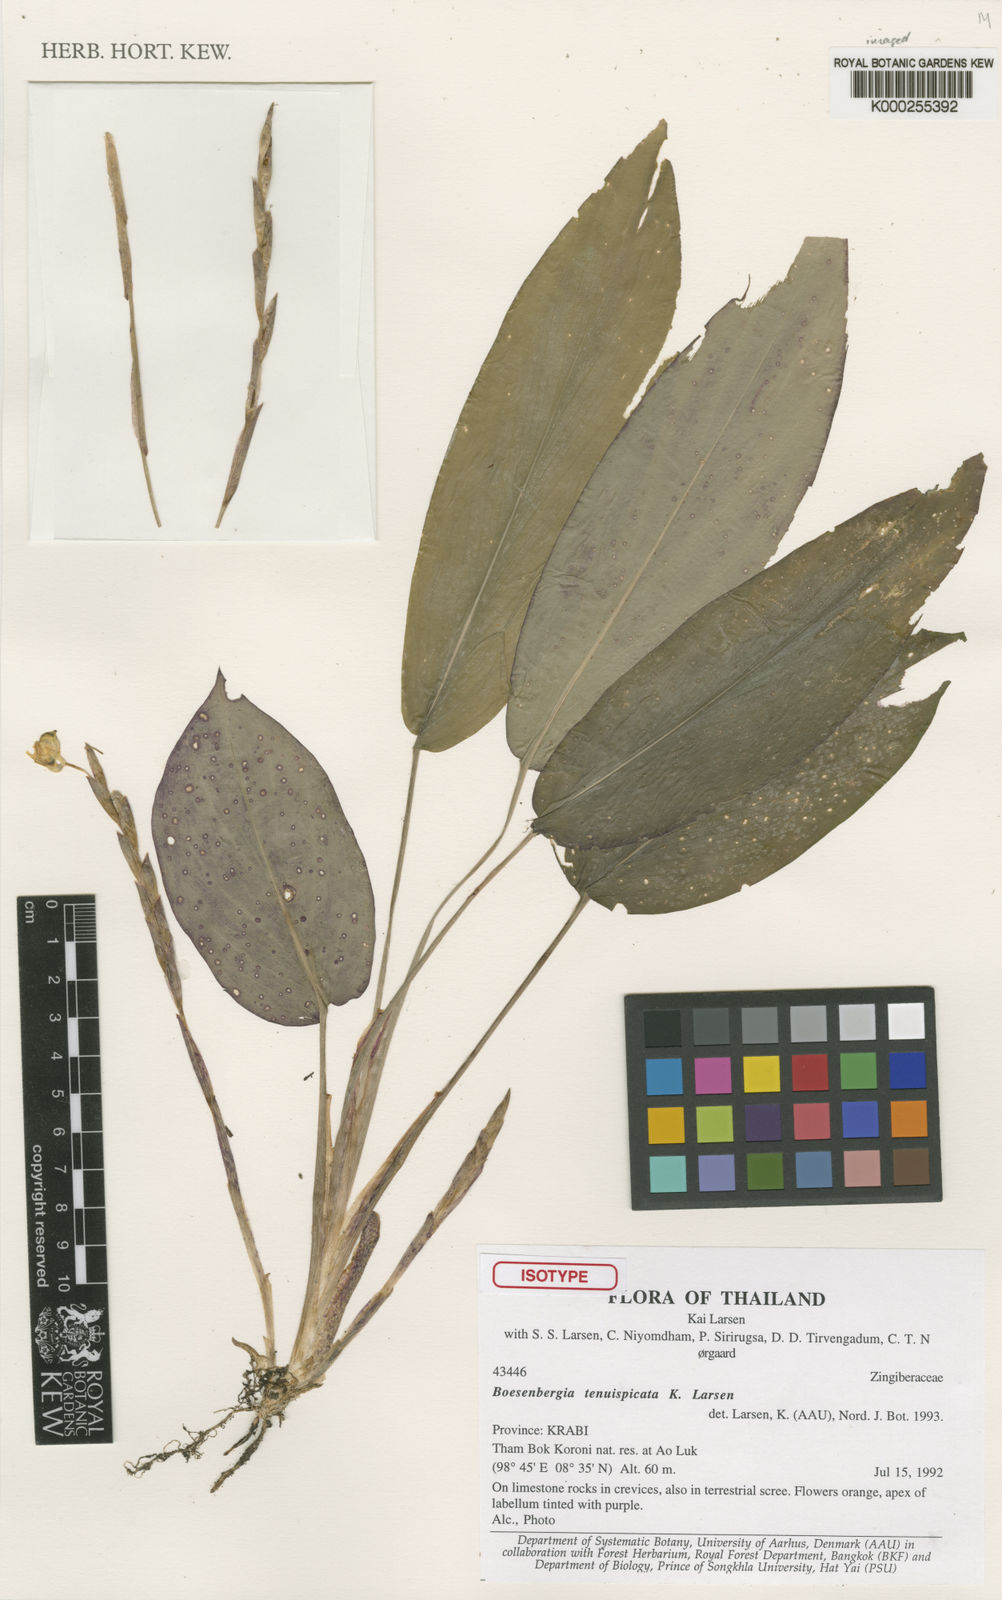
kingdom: Plantae
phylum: Tracheophyta
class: Liliopsida
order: Zingiberales
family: Zingiberaceae
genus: Boesenbergia
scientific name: Boesenbergia tenuispicata
